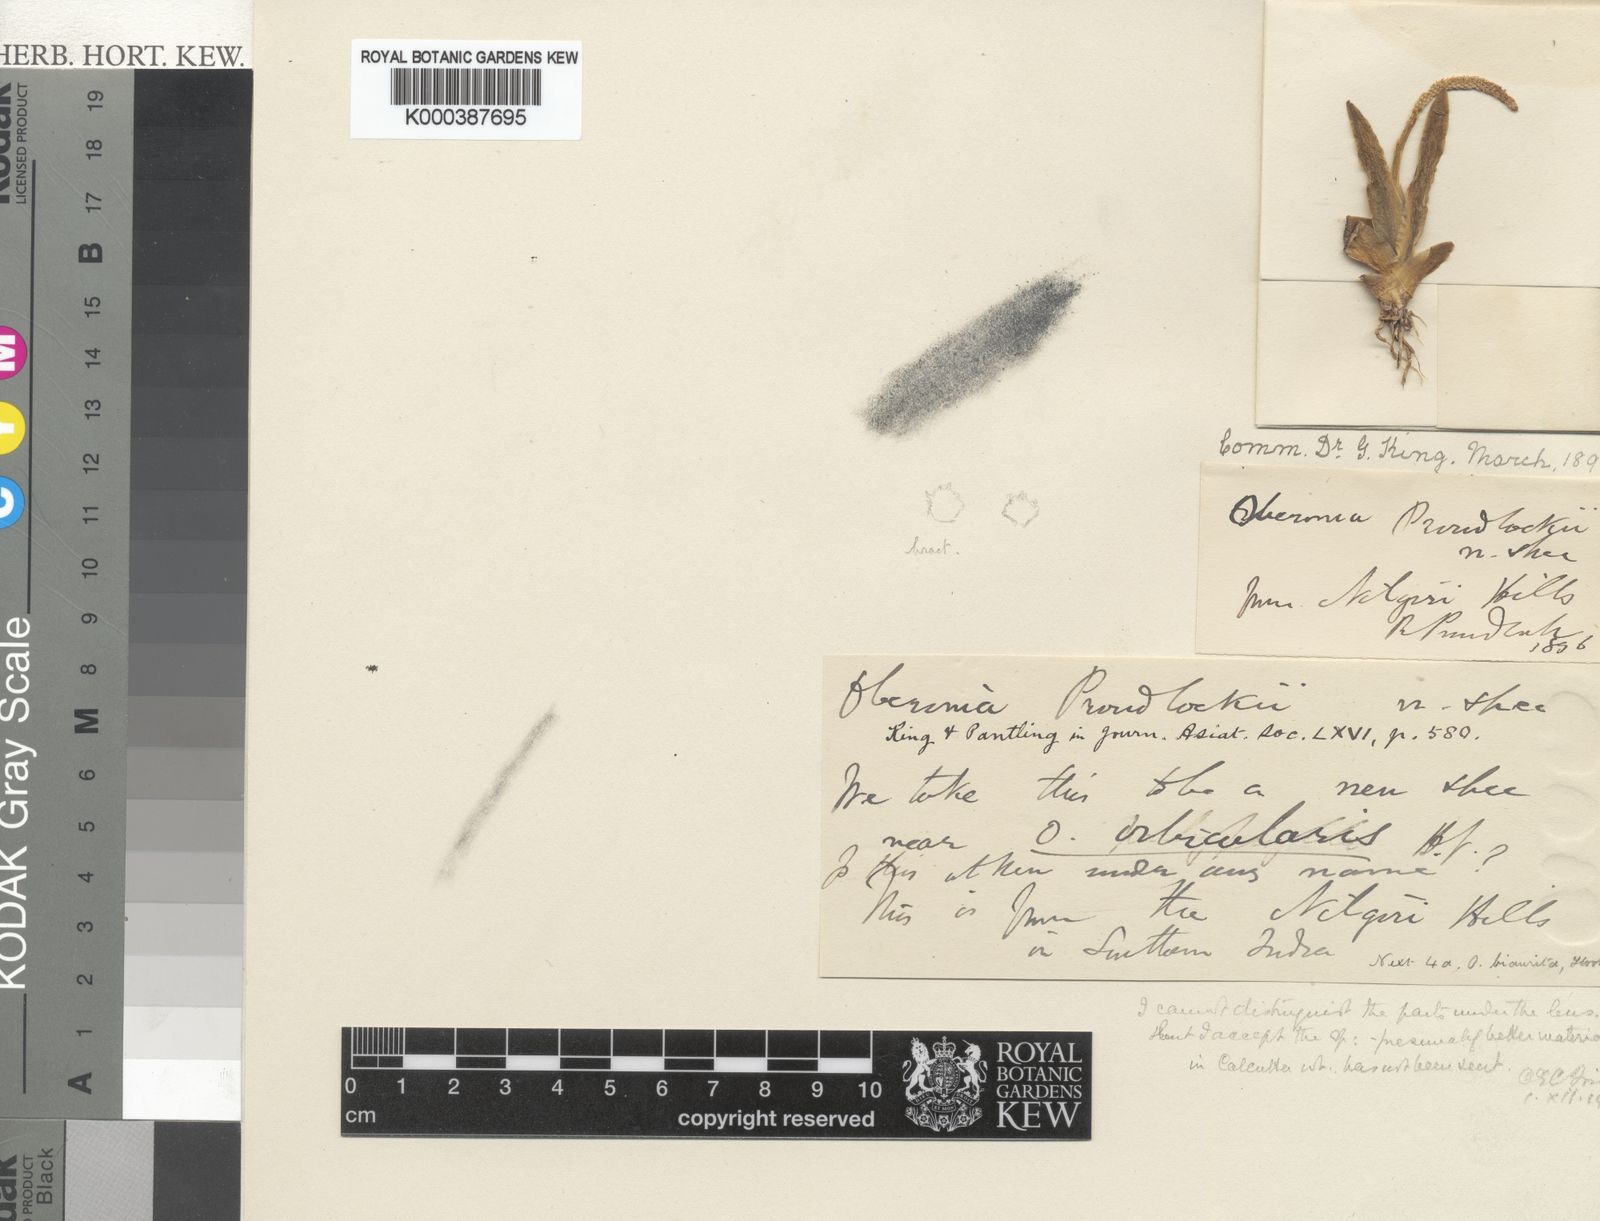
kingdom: Plantae
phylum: Tracheophyta
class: Liliopsida
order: Asparagales
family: Orchidaceae
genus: Oberonia
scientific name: Oberonia proudlockii
